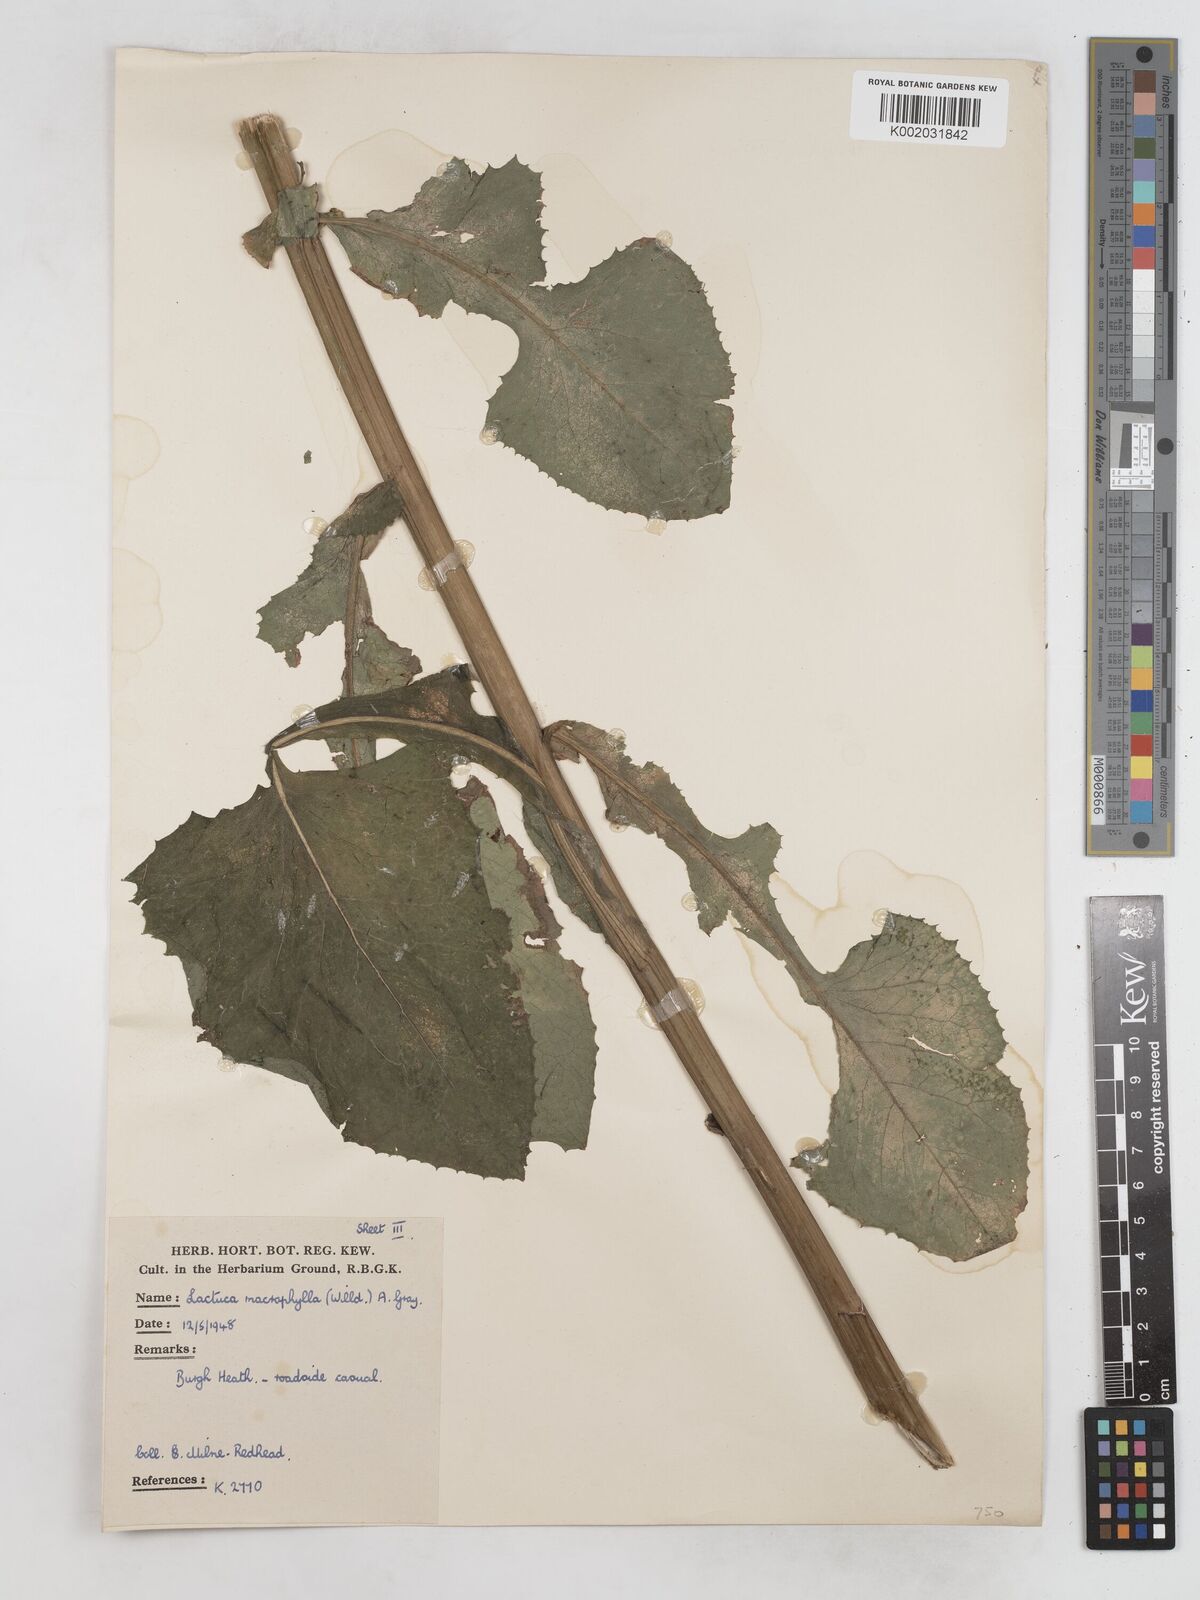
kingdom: Plantae
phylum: Tracheophyta
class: Magnoliopsida
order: Asterales
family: Asteraceae
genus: Lactuca
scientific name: Lactuca macrophylla
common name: Common blue-sow-thistle
